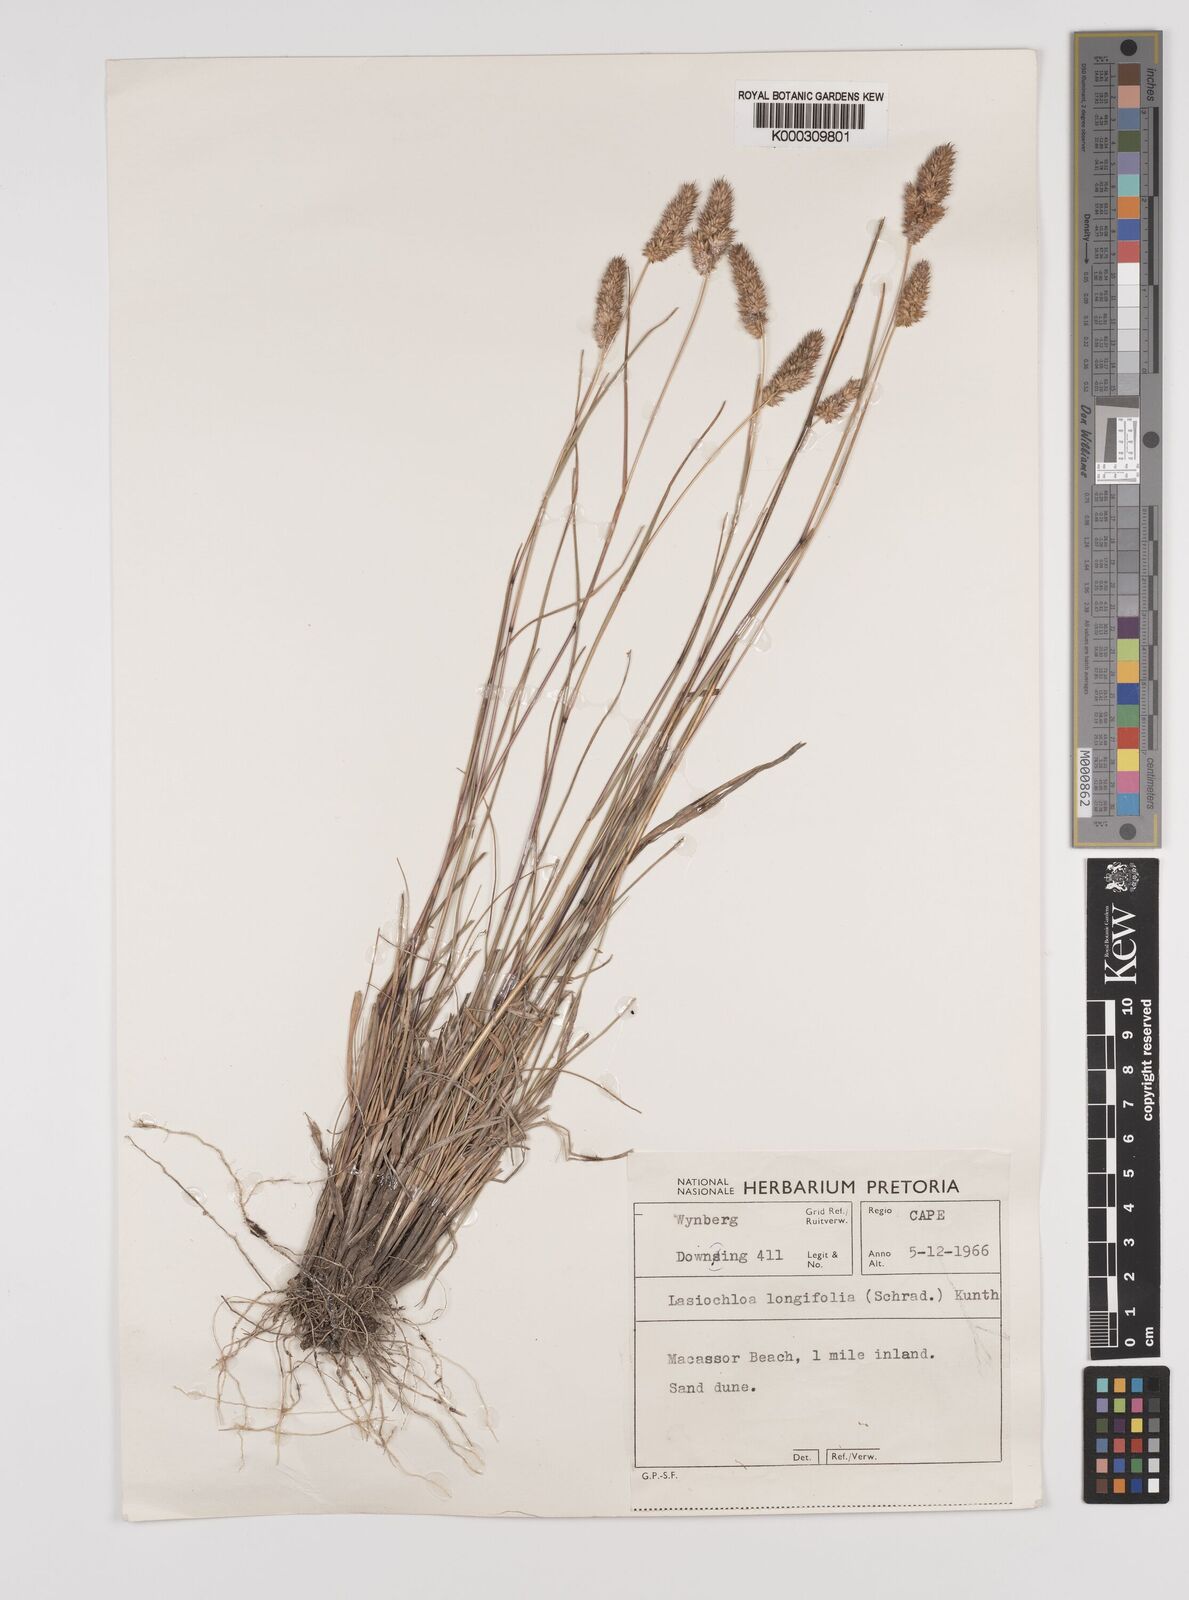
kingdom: Plantae
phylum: Tracheophyta
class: Liliopsida
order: Poales
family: Poaceae
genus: Tribolium
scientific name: Tribolium hispidum
